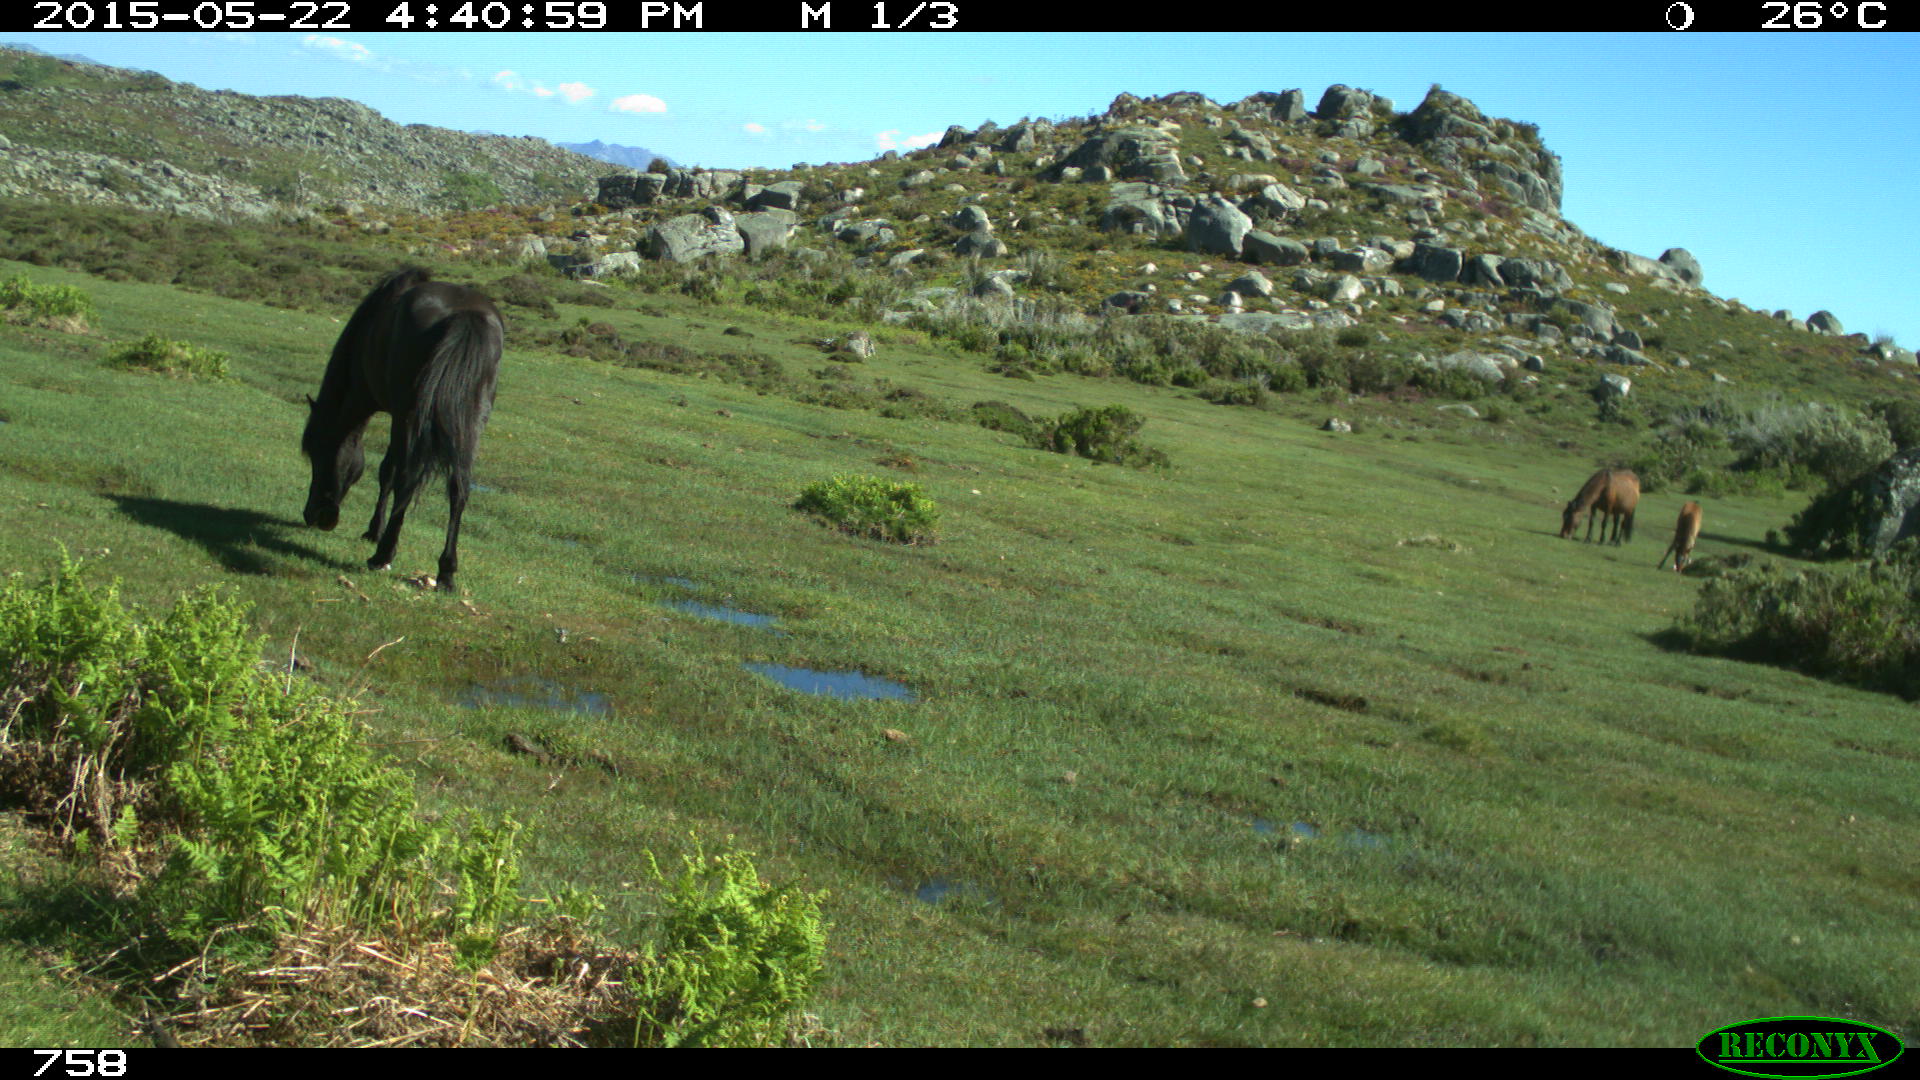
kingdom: Animalia
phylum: Chordata
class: Mammalia
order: Perissodactyla
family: Equidae
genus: Equus
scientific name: Equus caballus
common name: Horse
